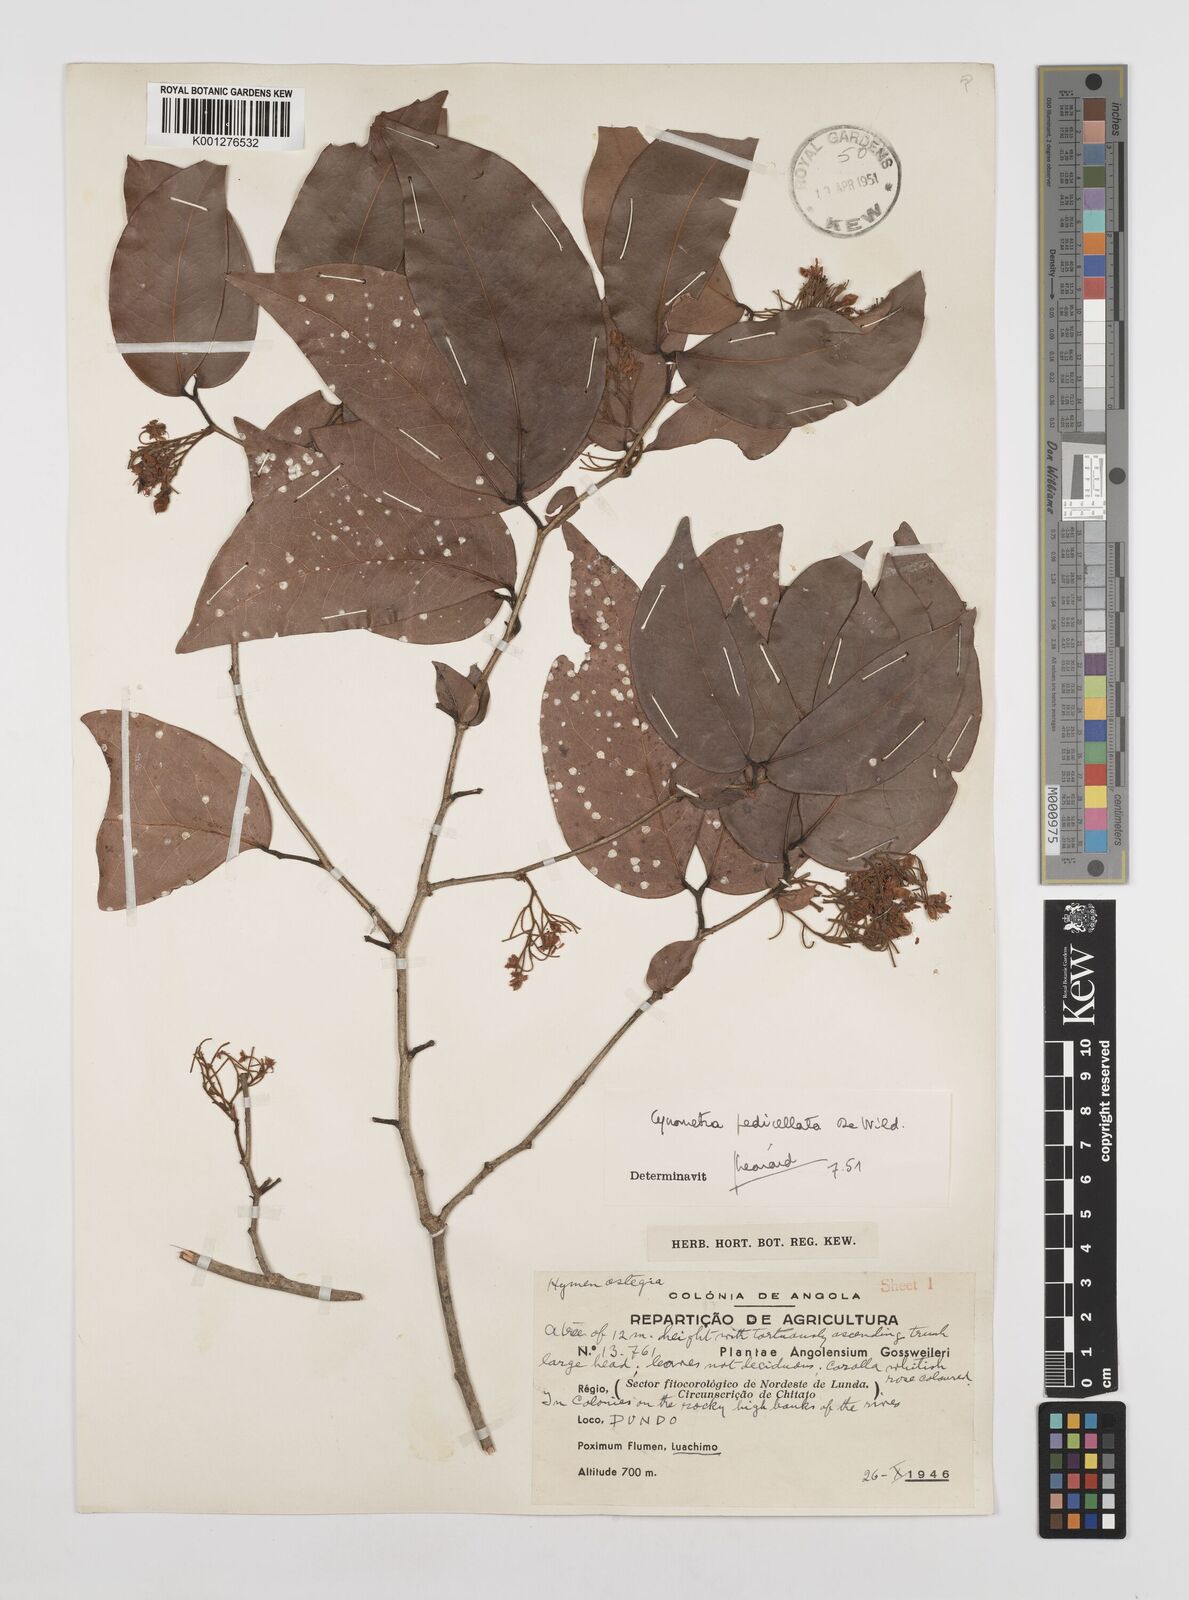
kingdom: Plantae
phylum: Tracheophyta
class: Magnoliopsida
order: Fabales
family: Fabaceae
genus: Cynometra
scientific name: Cynometra pedicellata
